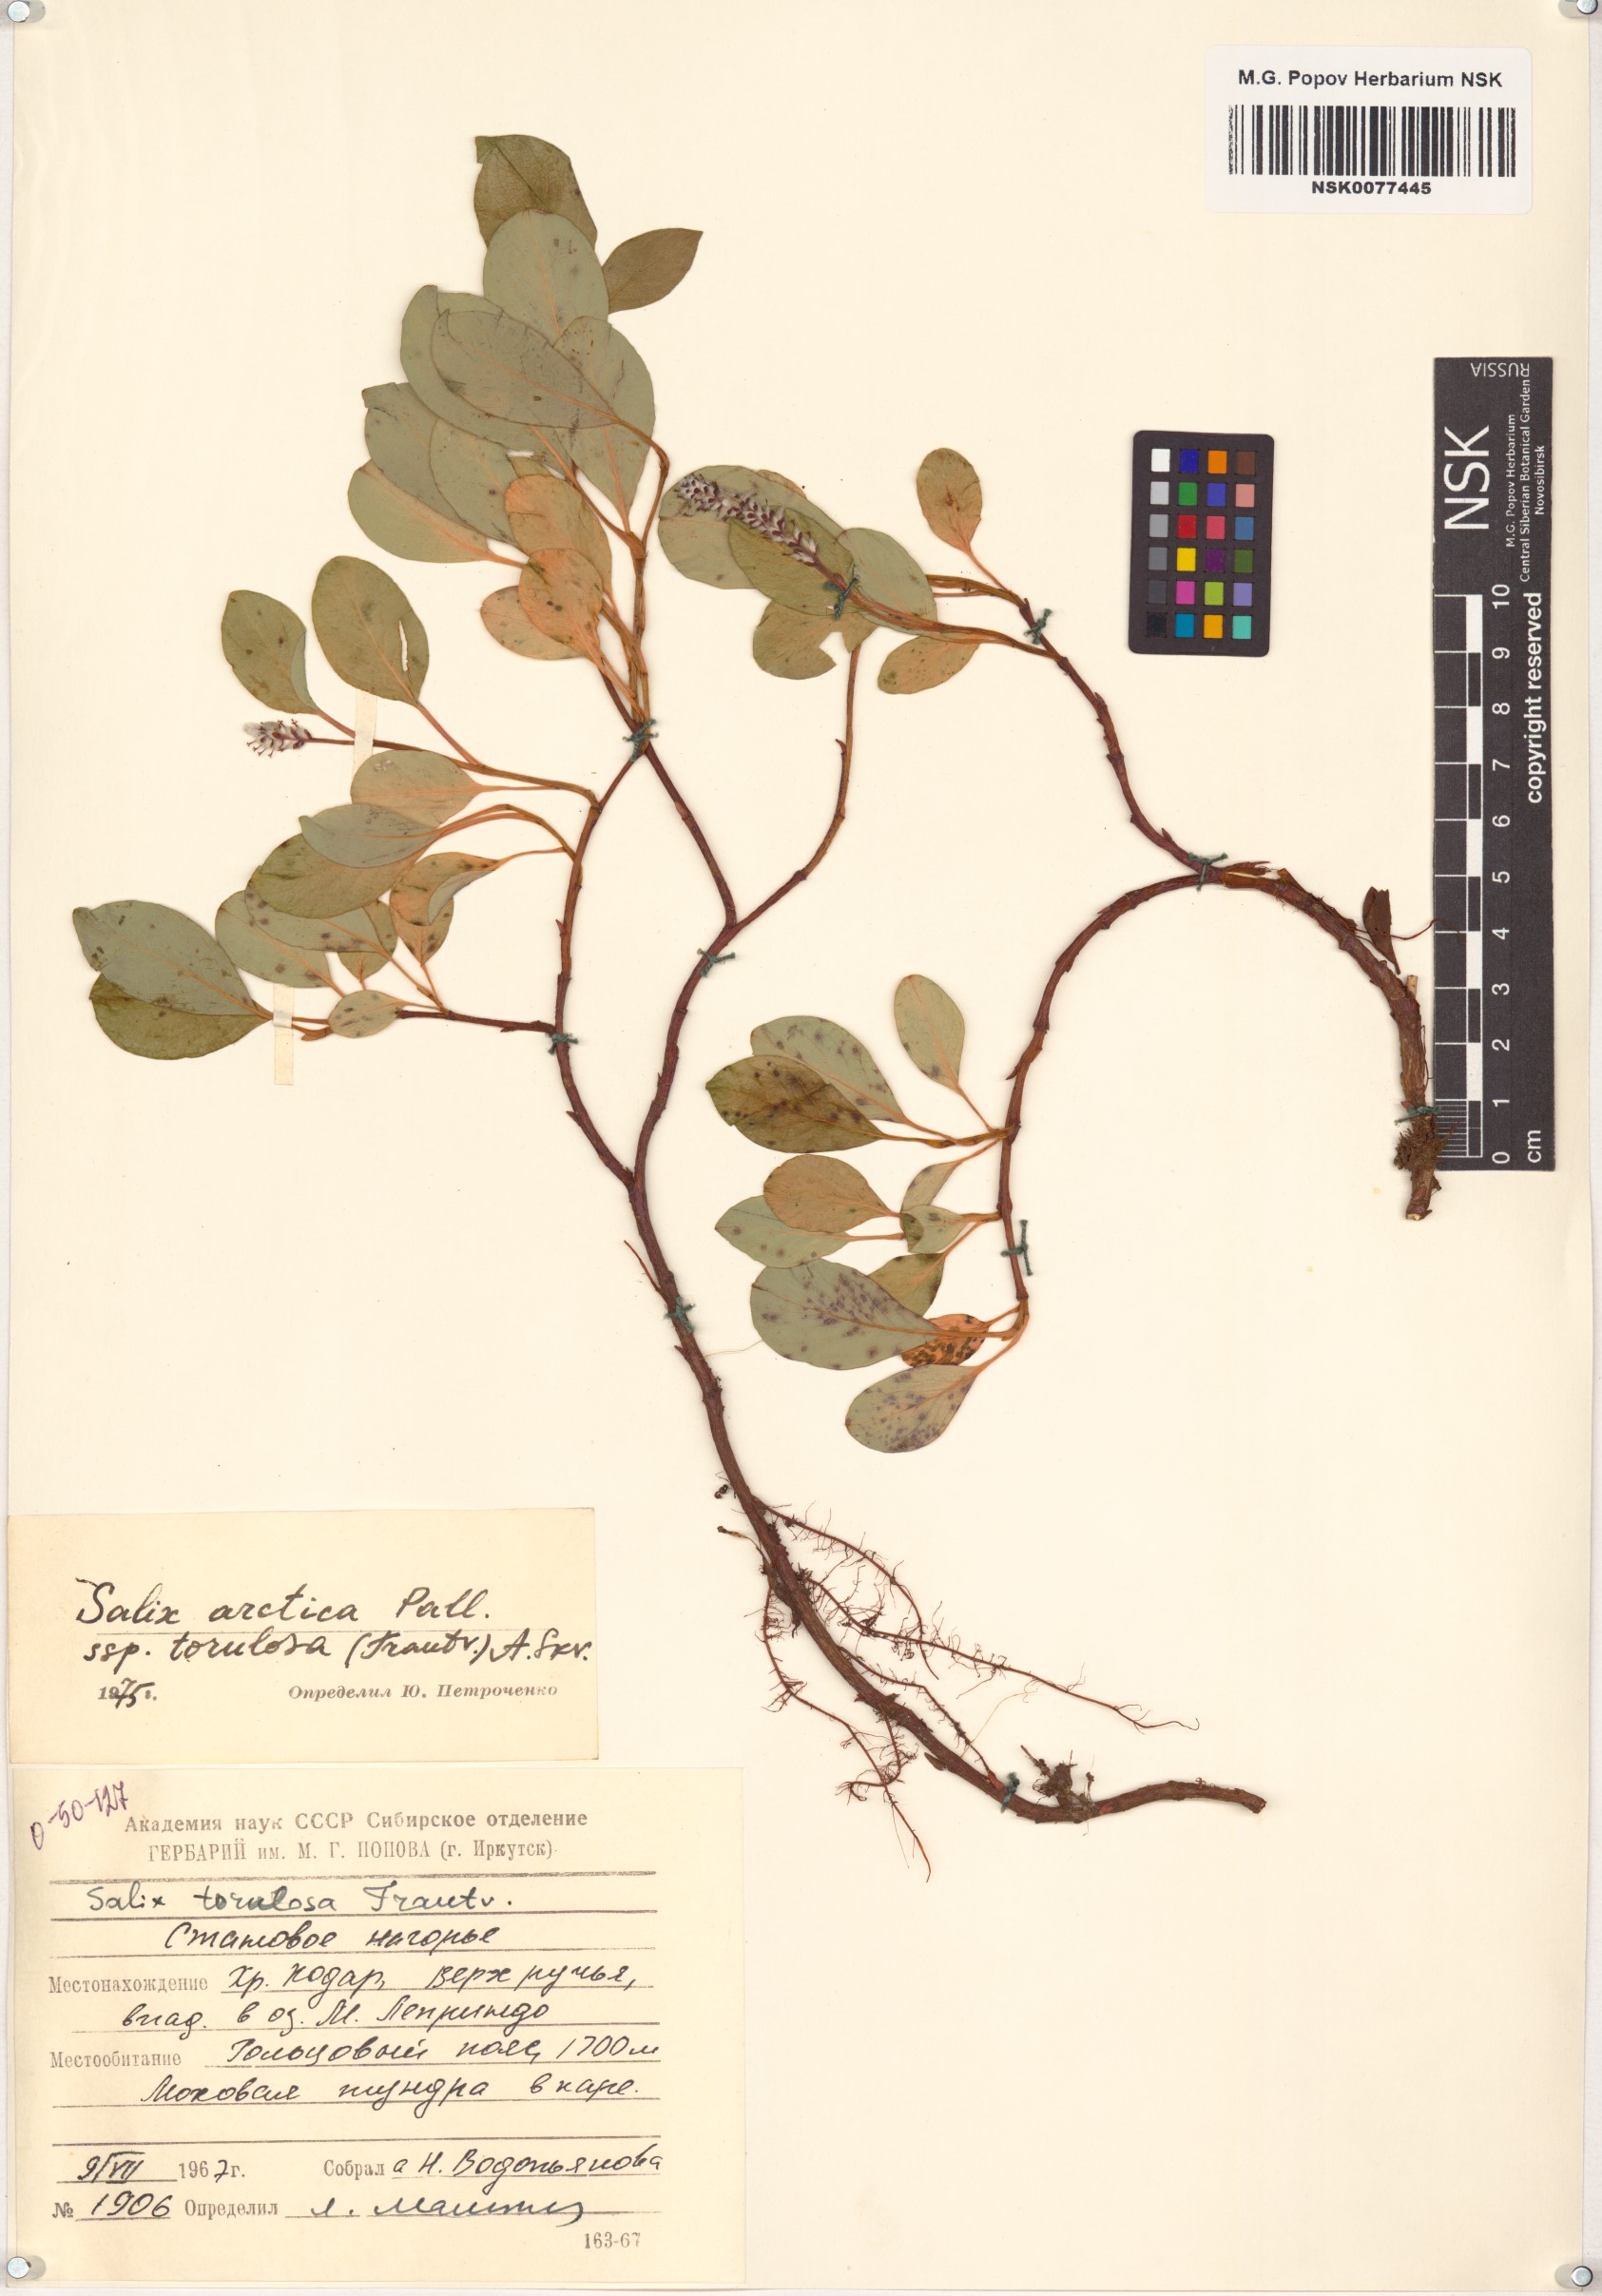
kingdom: Plantae
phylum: Tracheophyta
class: Magnoliopsida
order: Malpighiales
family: Salicaceae
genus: Salix
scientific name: Salix arctica
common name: Arctic willow
